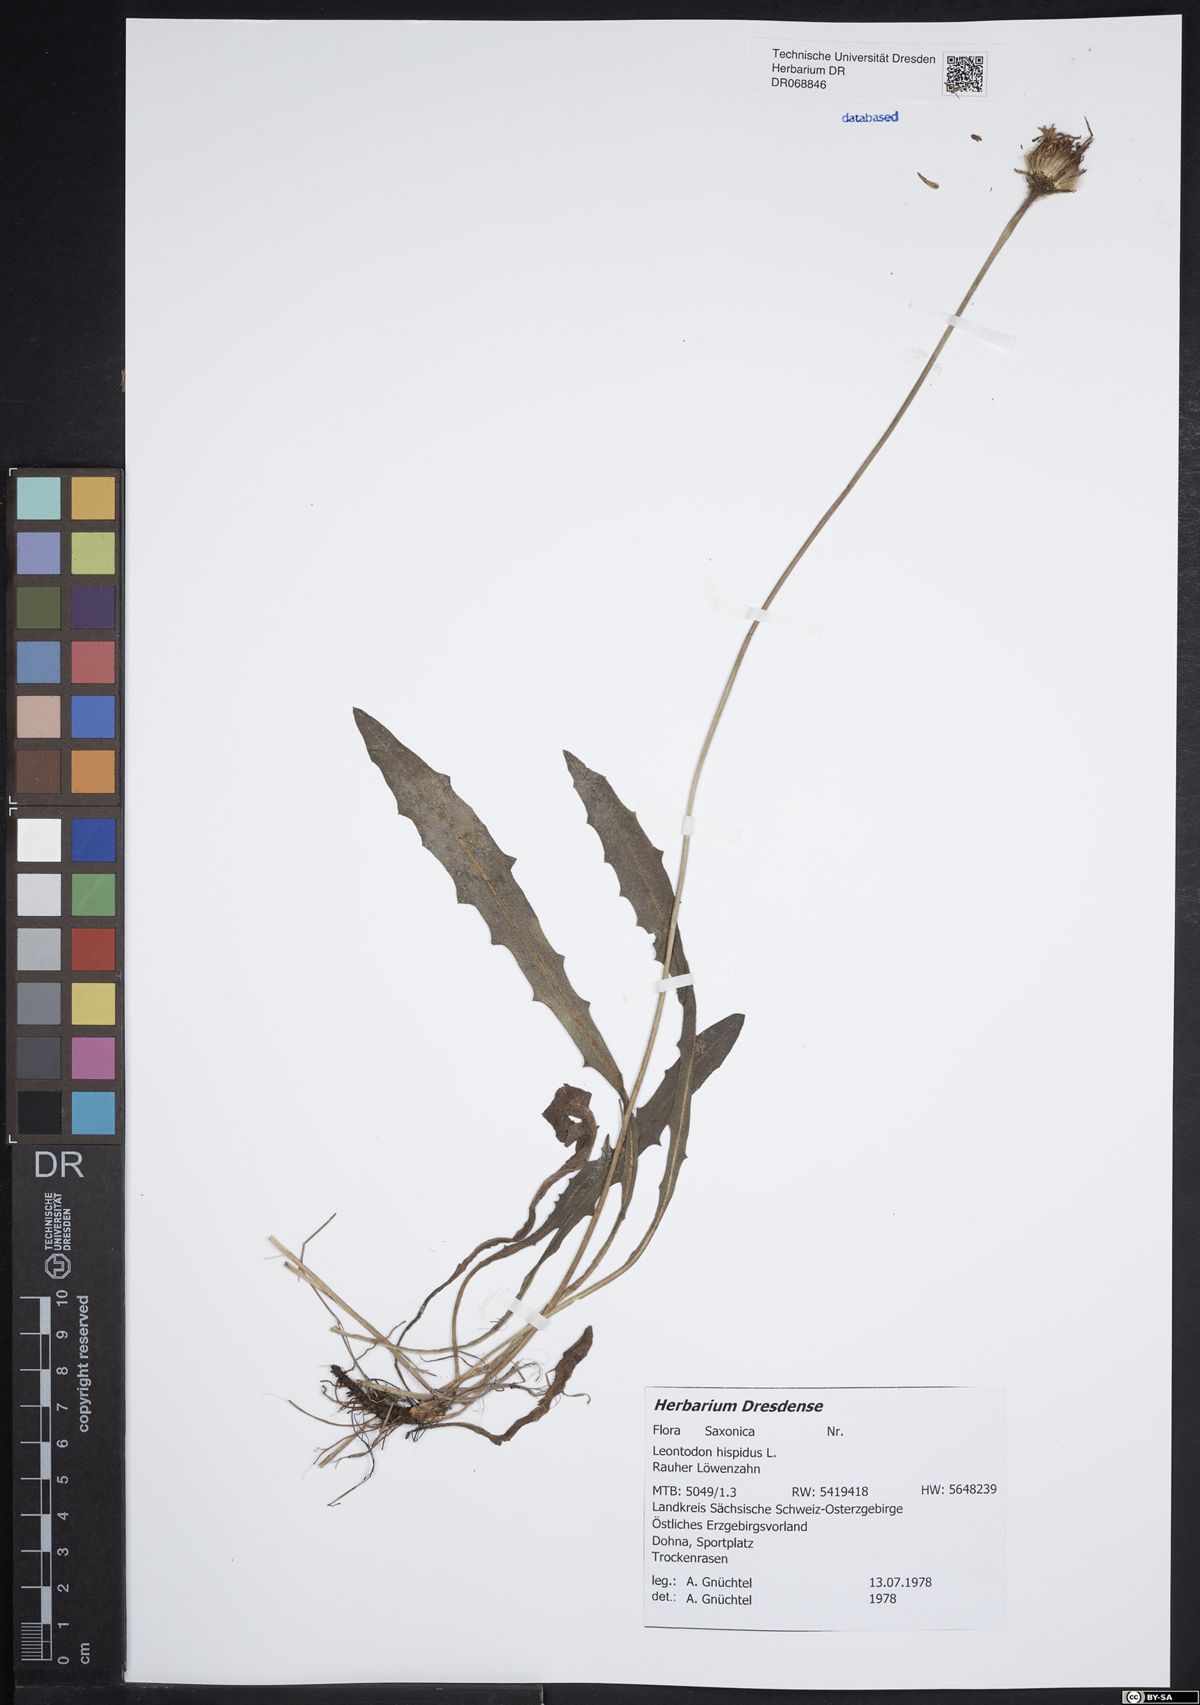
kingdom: Plantae
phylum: Tracheophyta
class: Magnoliopsida
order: Asterales
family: Asteraceae
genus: Leontodon
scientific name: Leontodon hispidus
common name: Rough hawkbit
